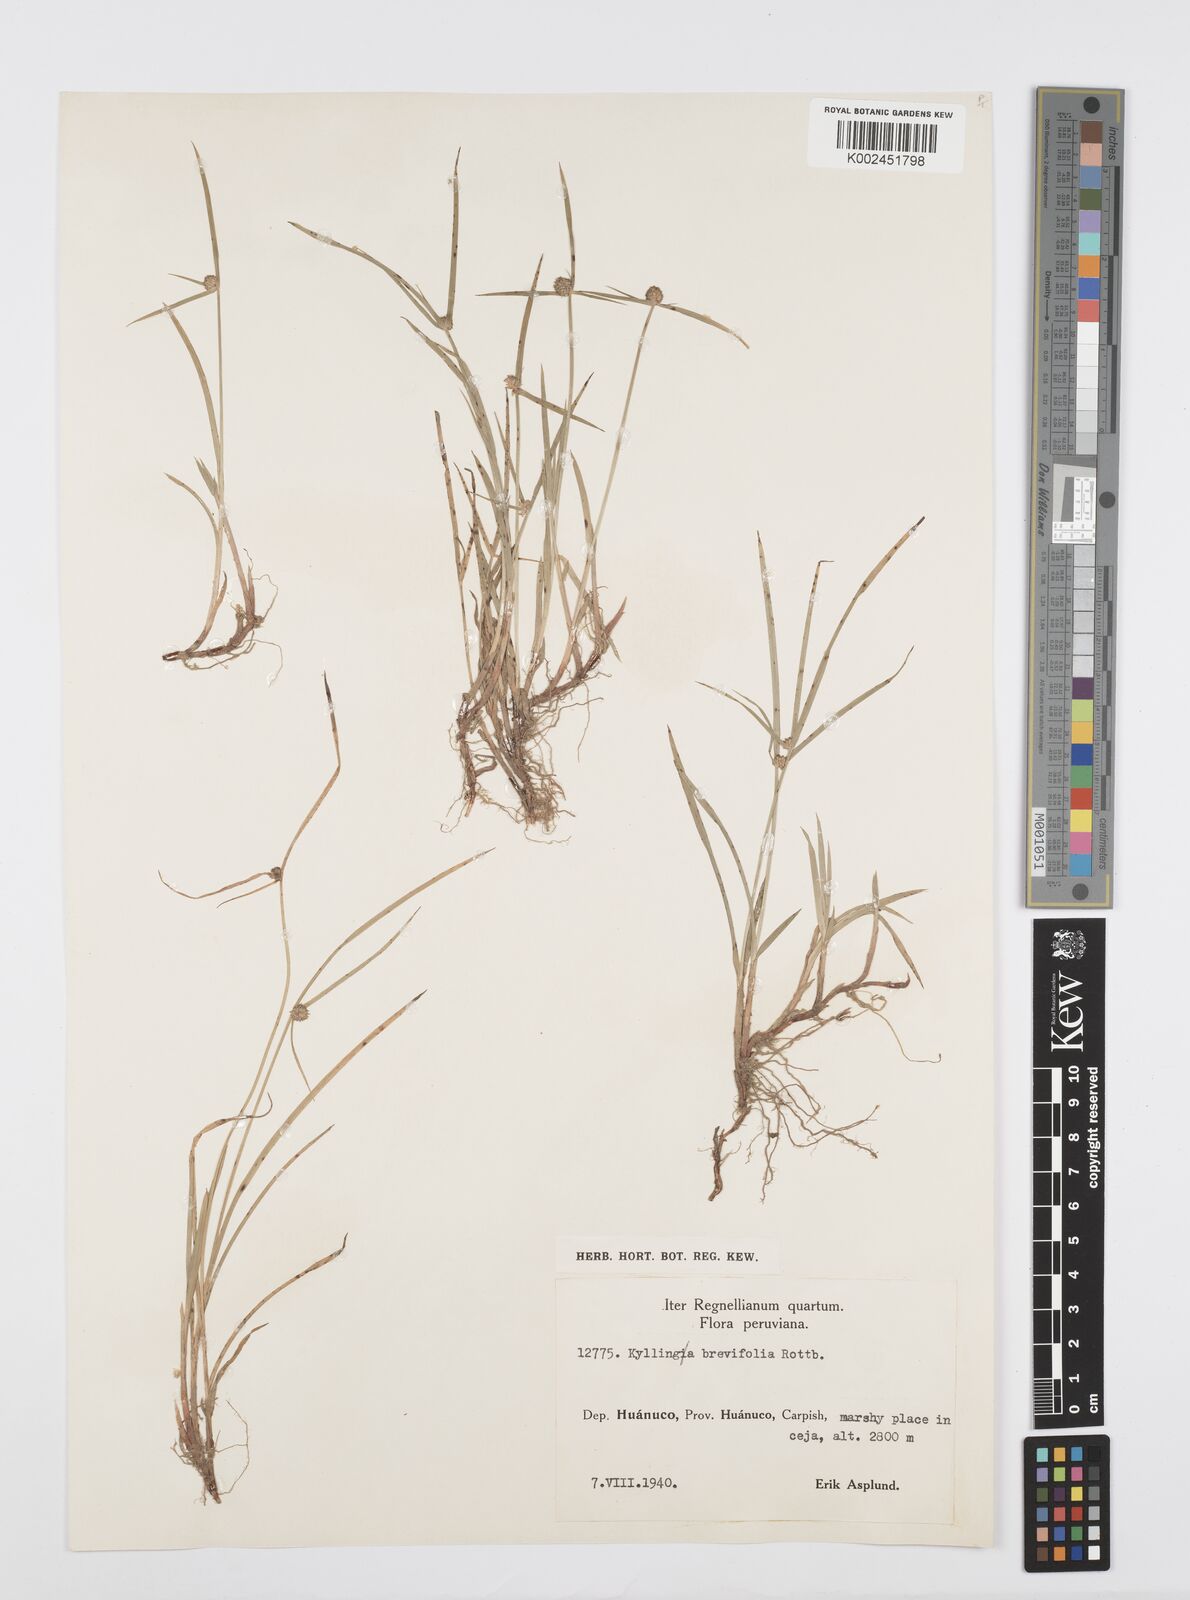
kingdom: Plantae
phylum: Tracheophyta
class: Liliopsida
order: Poales
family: Cyperaceae
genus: Cyperus
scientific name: Cyperus brevifolius
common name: Globe kyllinga
